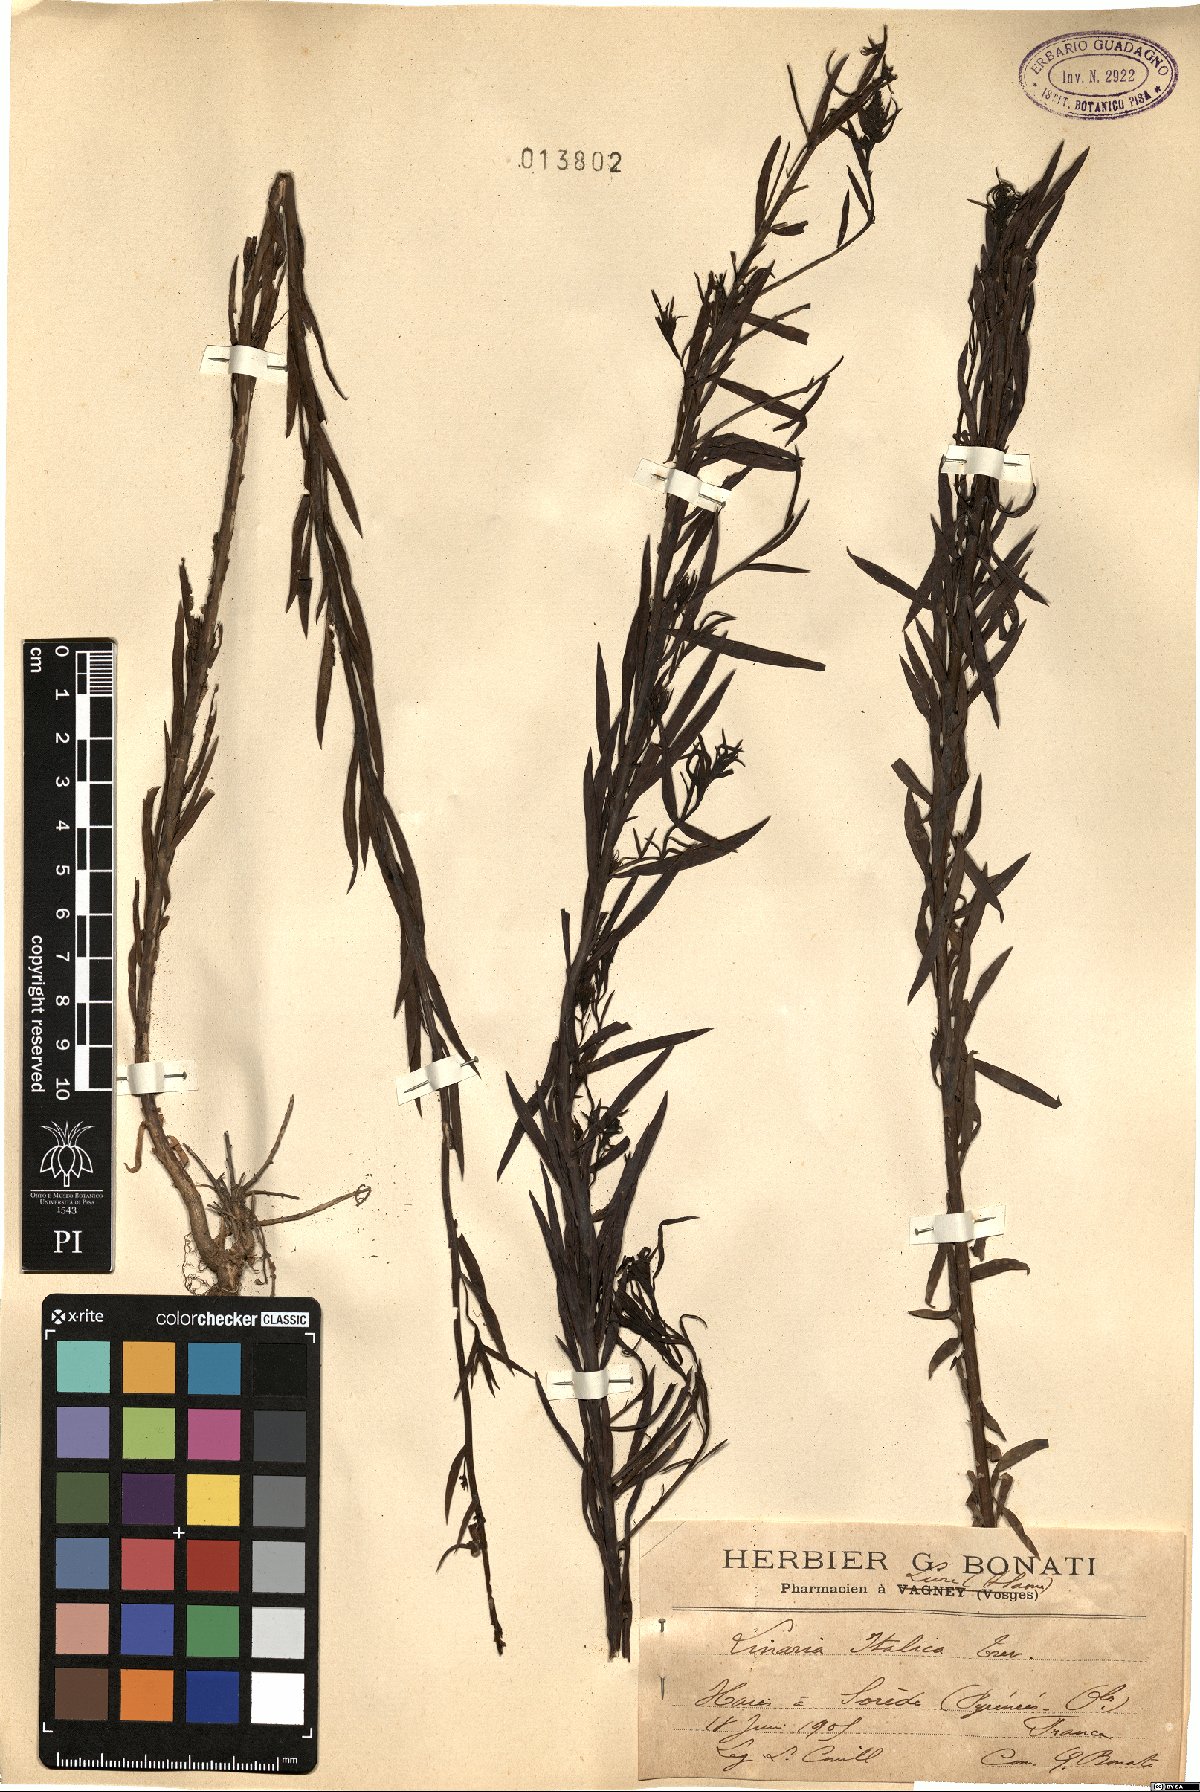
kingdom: Plantae
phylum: Tracheophyta
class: Magnoliopsida
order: Lamiales
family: Plantaginaceae
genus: Linaria
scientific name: Linaria angustissima
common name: Italian toadflax
